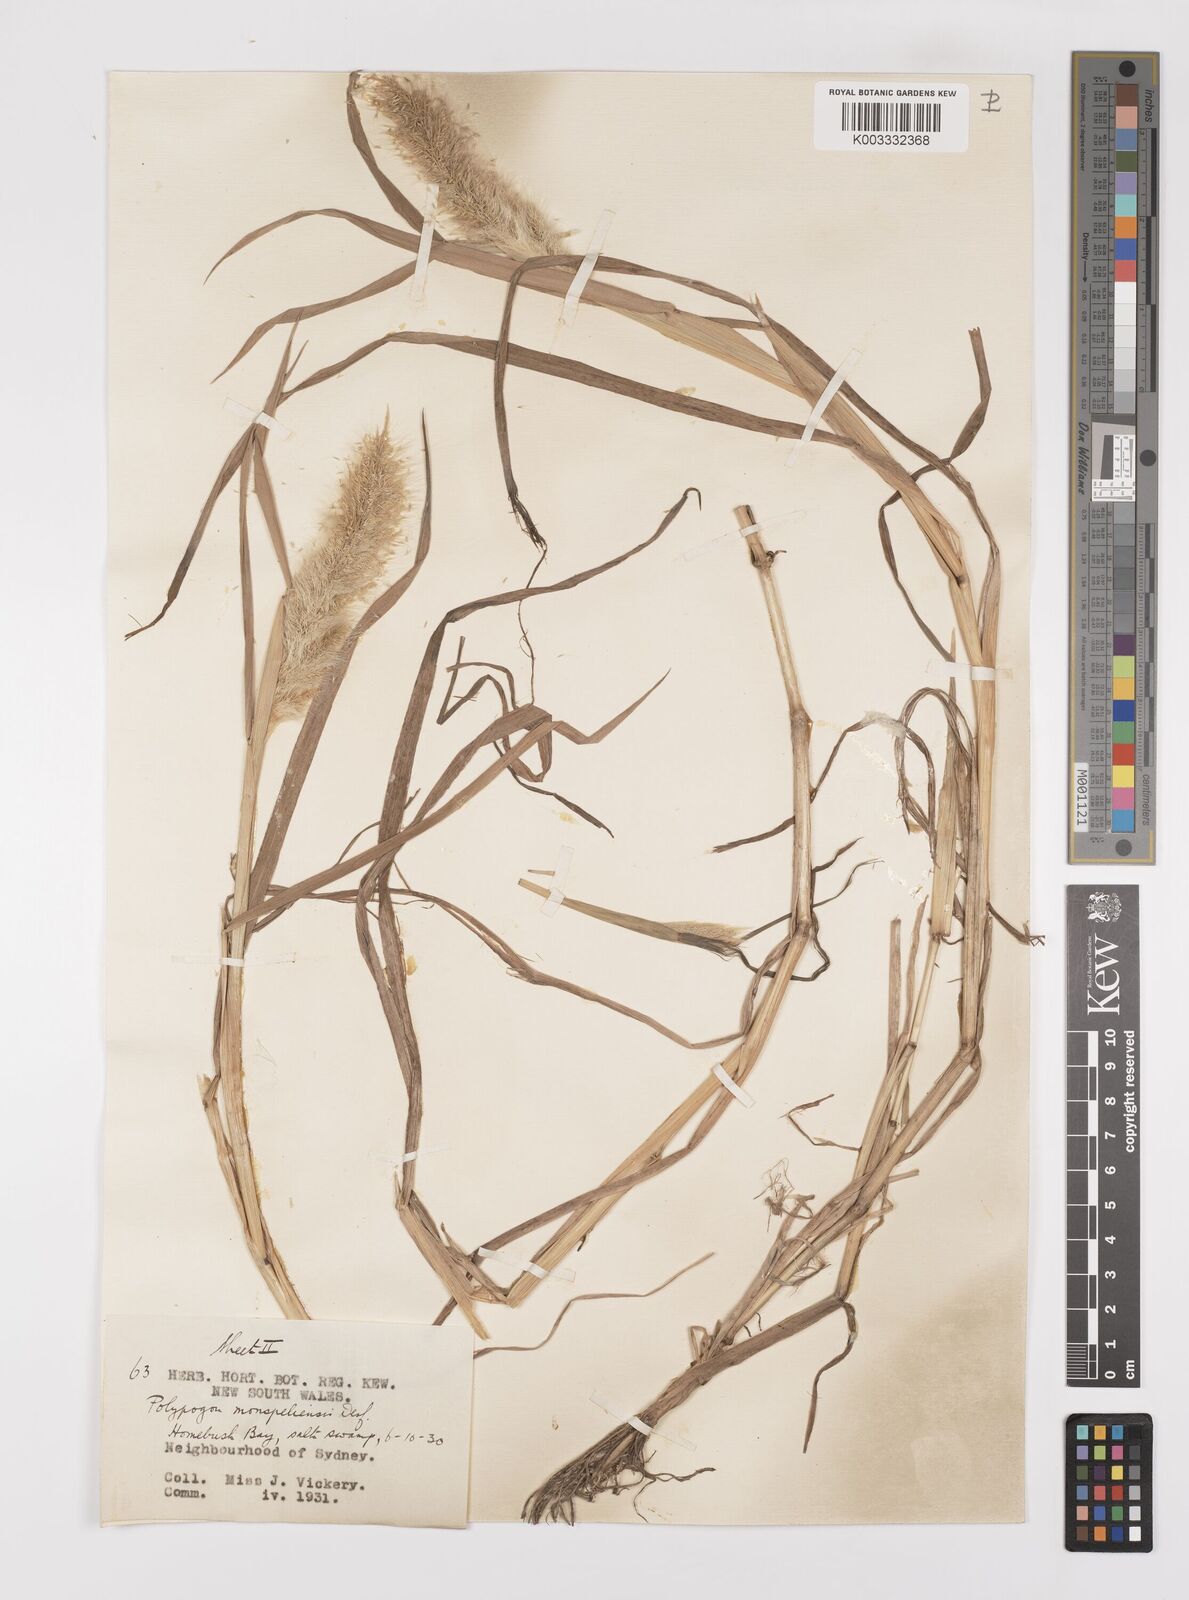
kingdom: Plantae
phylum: Tracheophyta
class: Liliopsida
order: Poales
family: Poaceae
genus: Polypogon
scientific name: Polypogon monspeliensis
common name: Annual rabbitsfoot grass
